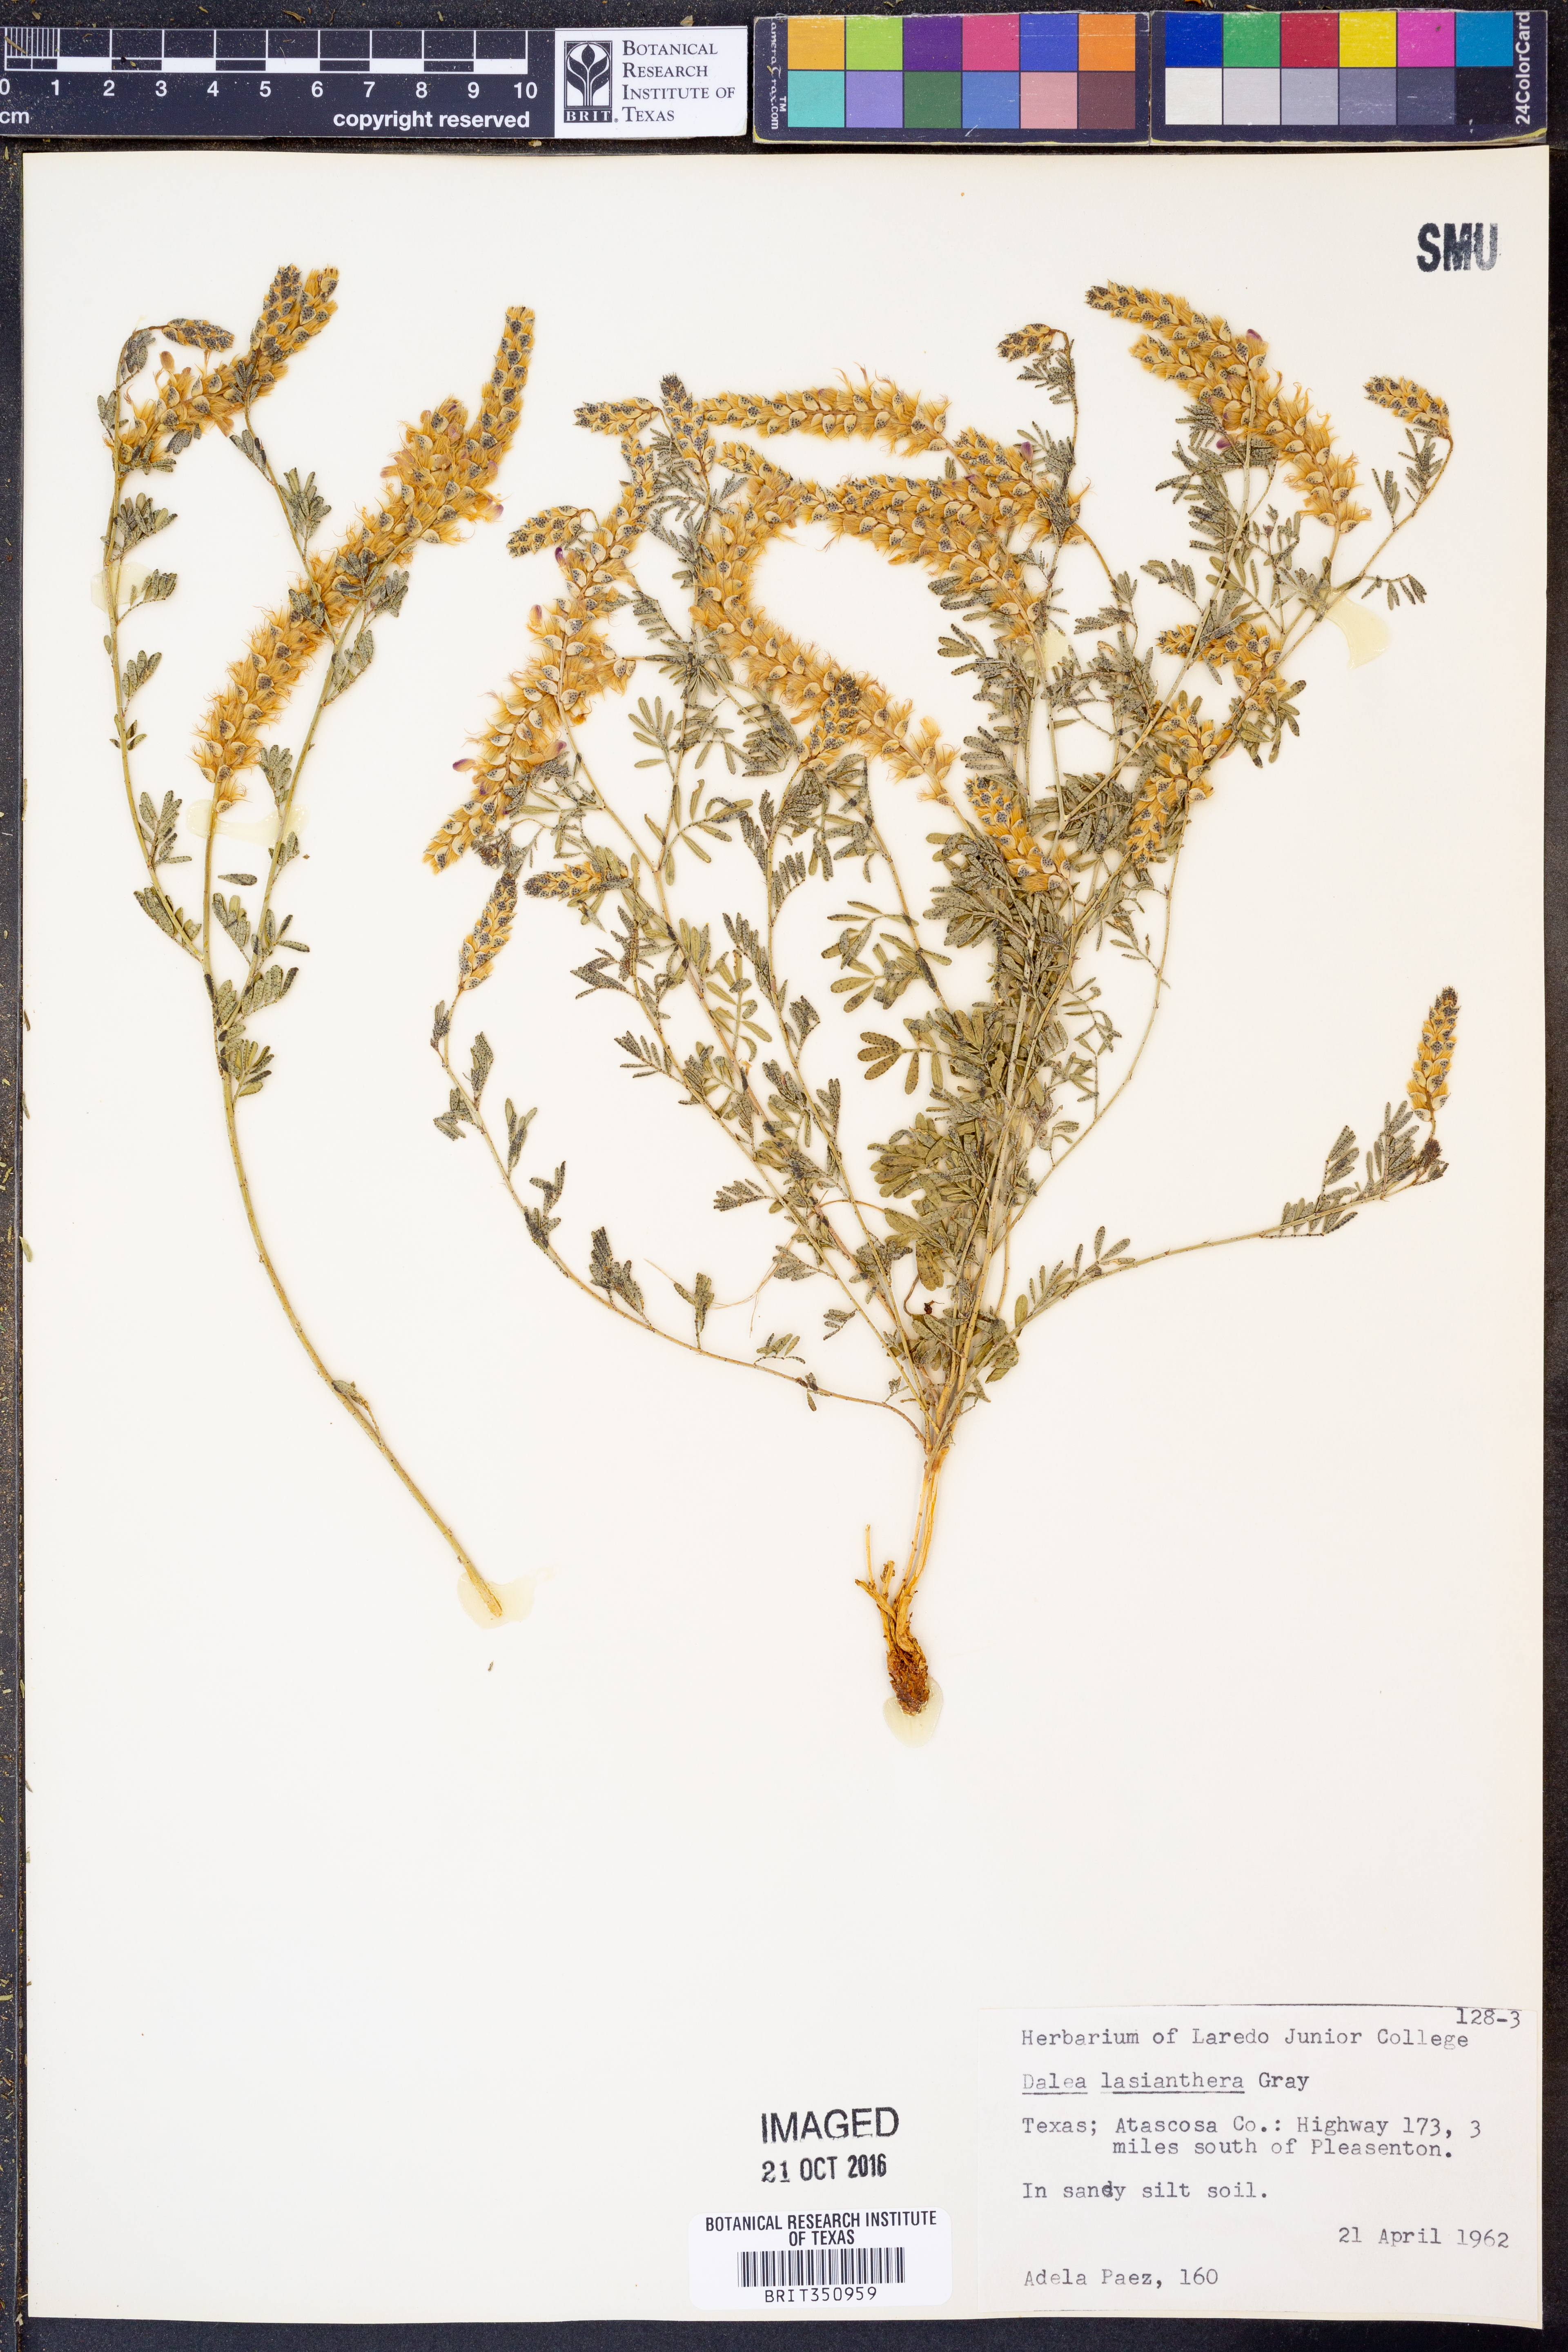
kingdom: Plantae
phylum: Tracheophyta
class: Magnoliopsida
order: Fabales
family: Fabaceae
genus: Dalea
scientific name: Dalea lasiathera
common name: Purple prairie-clover
